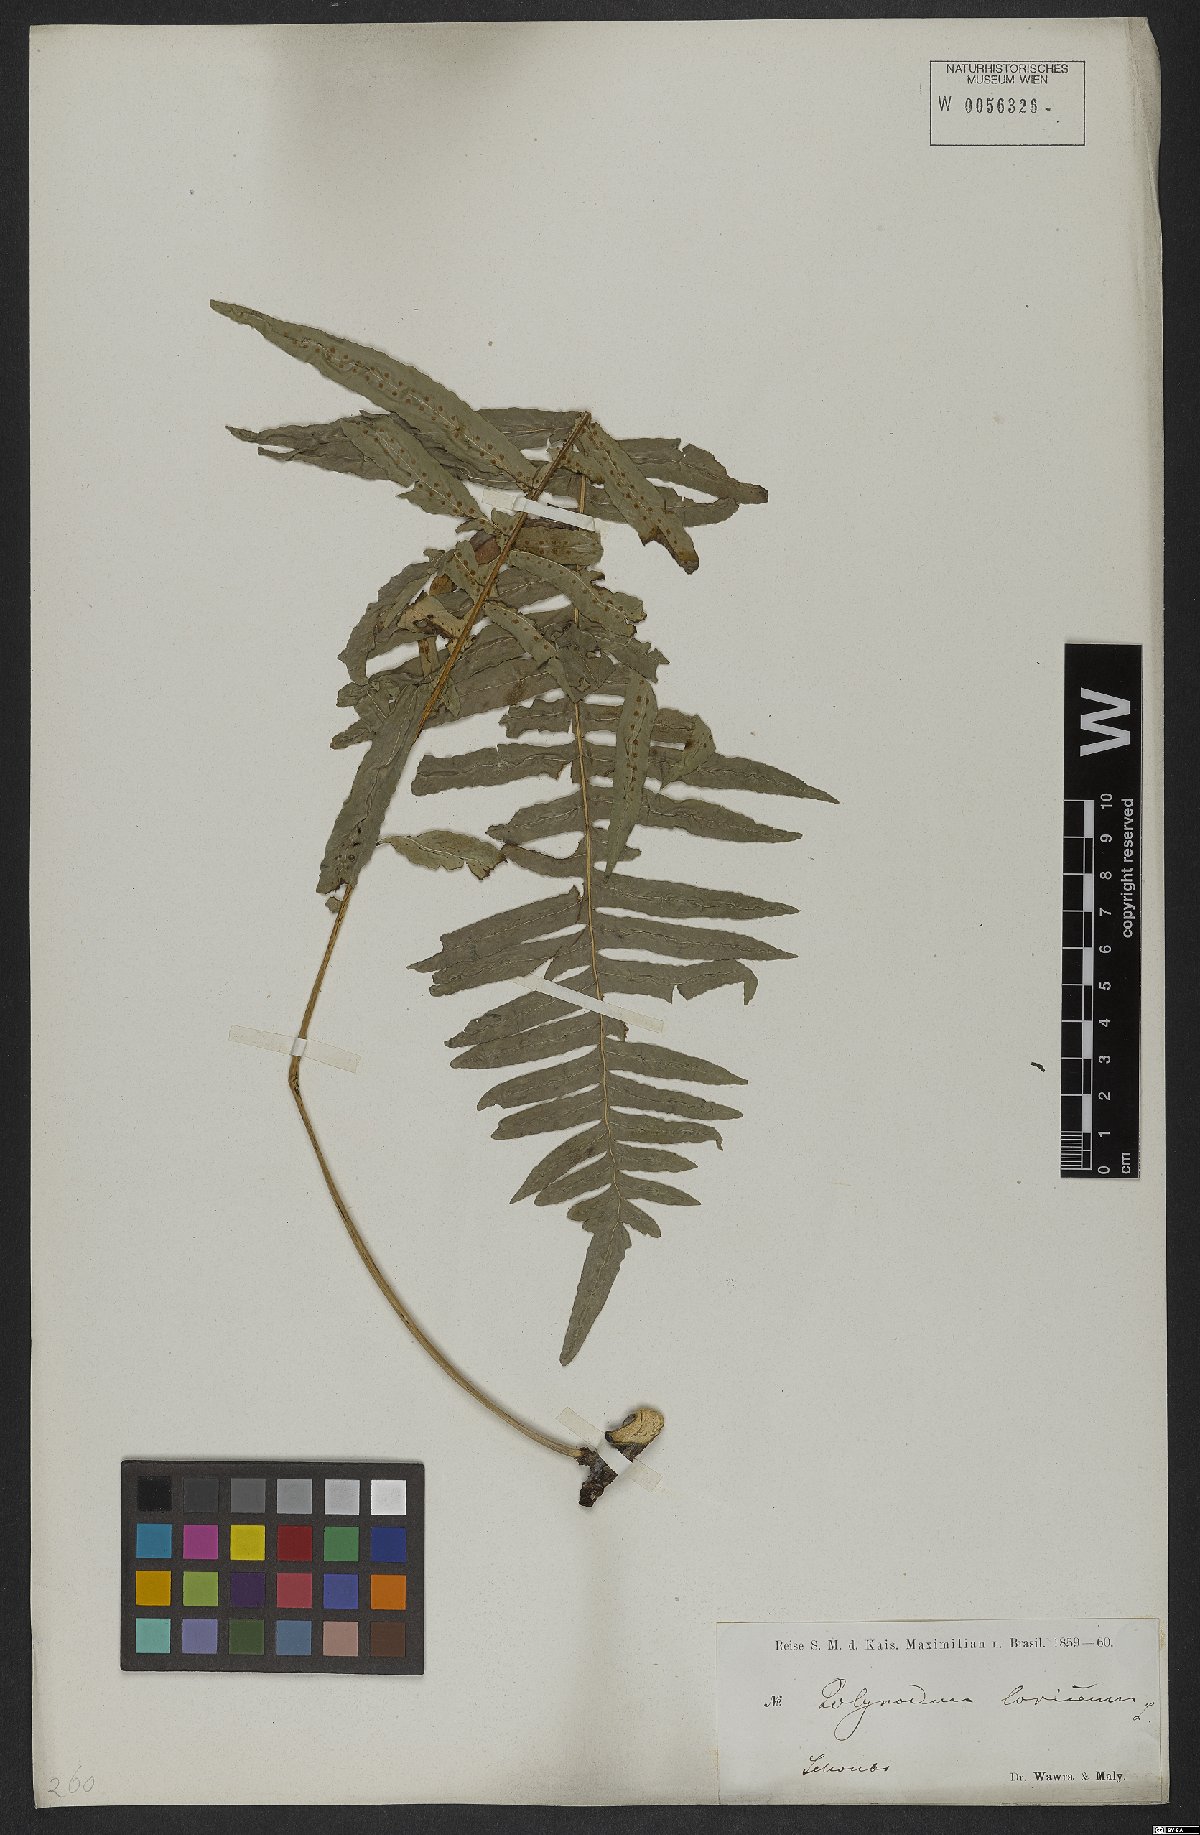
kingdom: Plantae
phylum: Tracheophyta
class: Polypodiopsida
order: Polypodiales
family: Polypodiaceae
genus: Serpocaulon
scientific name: Serpocaulon loriceum
